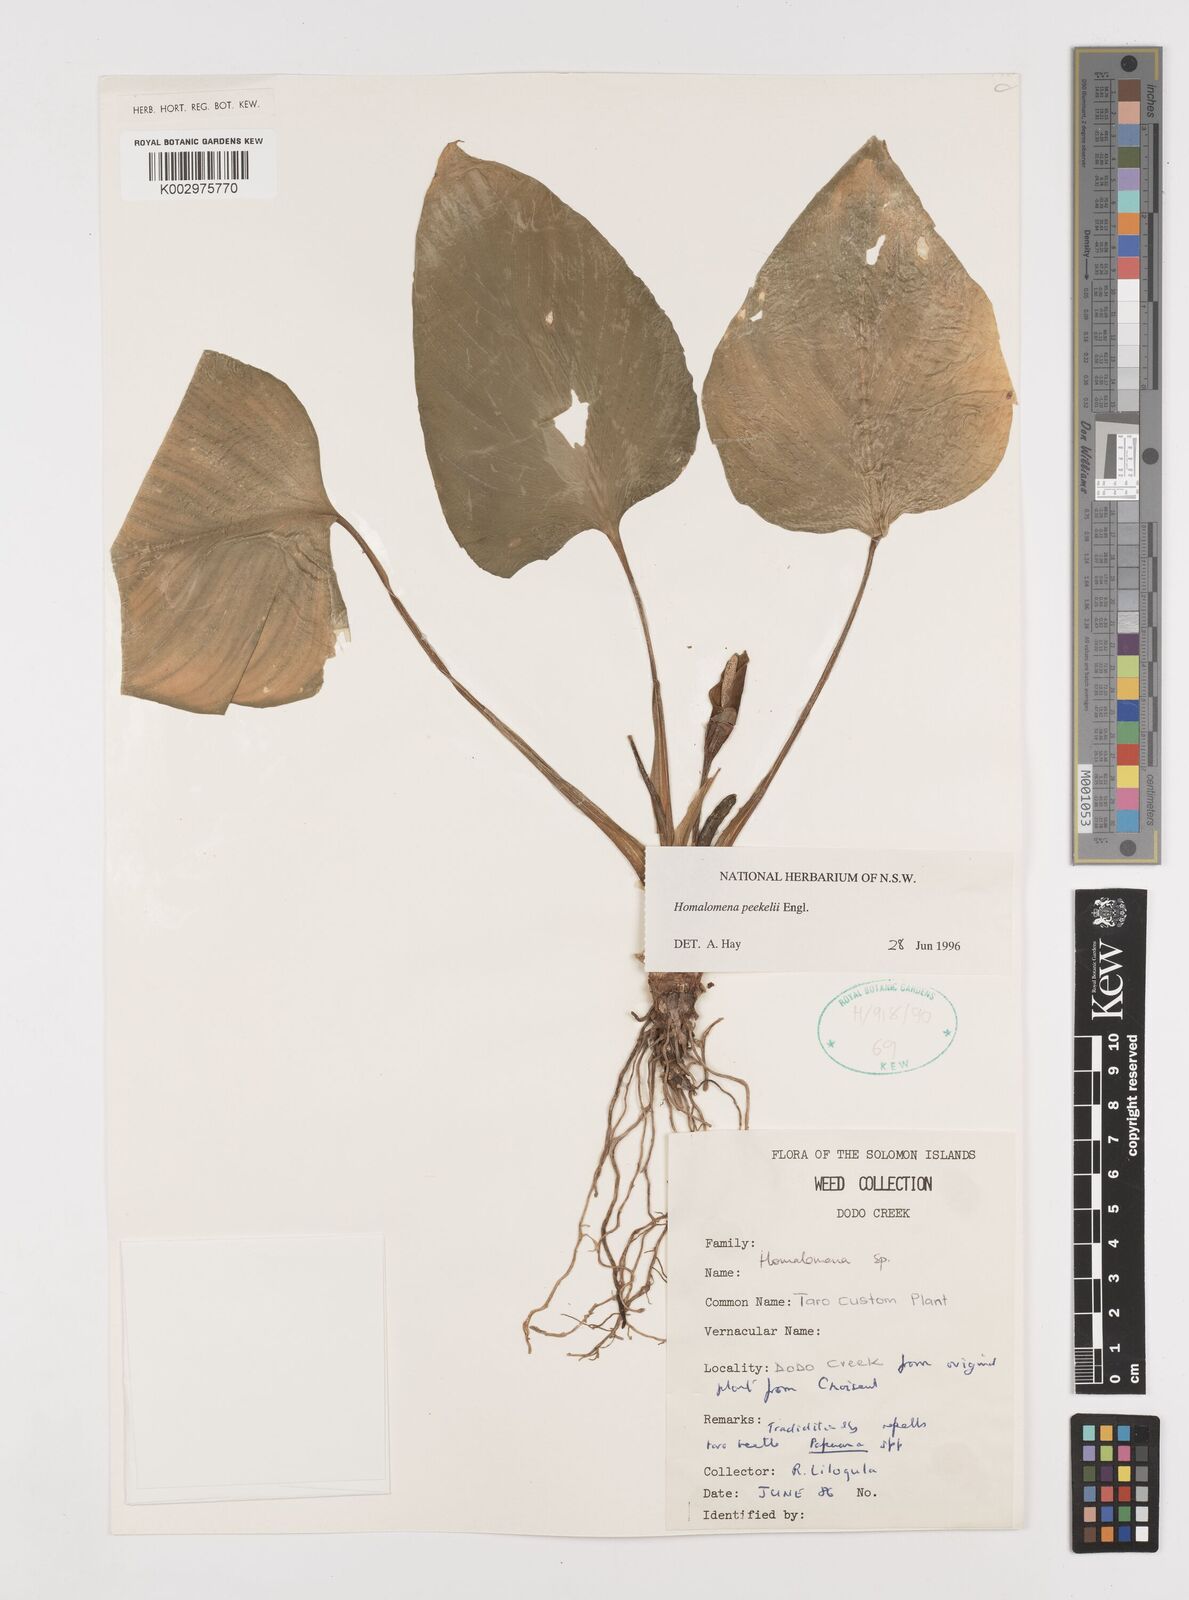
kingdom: Plantae
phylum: Tracheophyta
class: Liliopsida
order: Alismatales
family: Araceae
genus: Homalomena
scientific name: Homalomena peekelii
